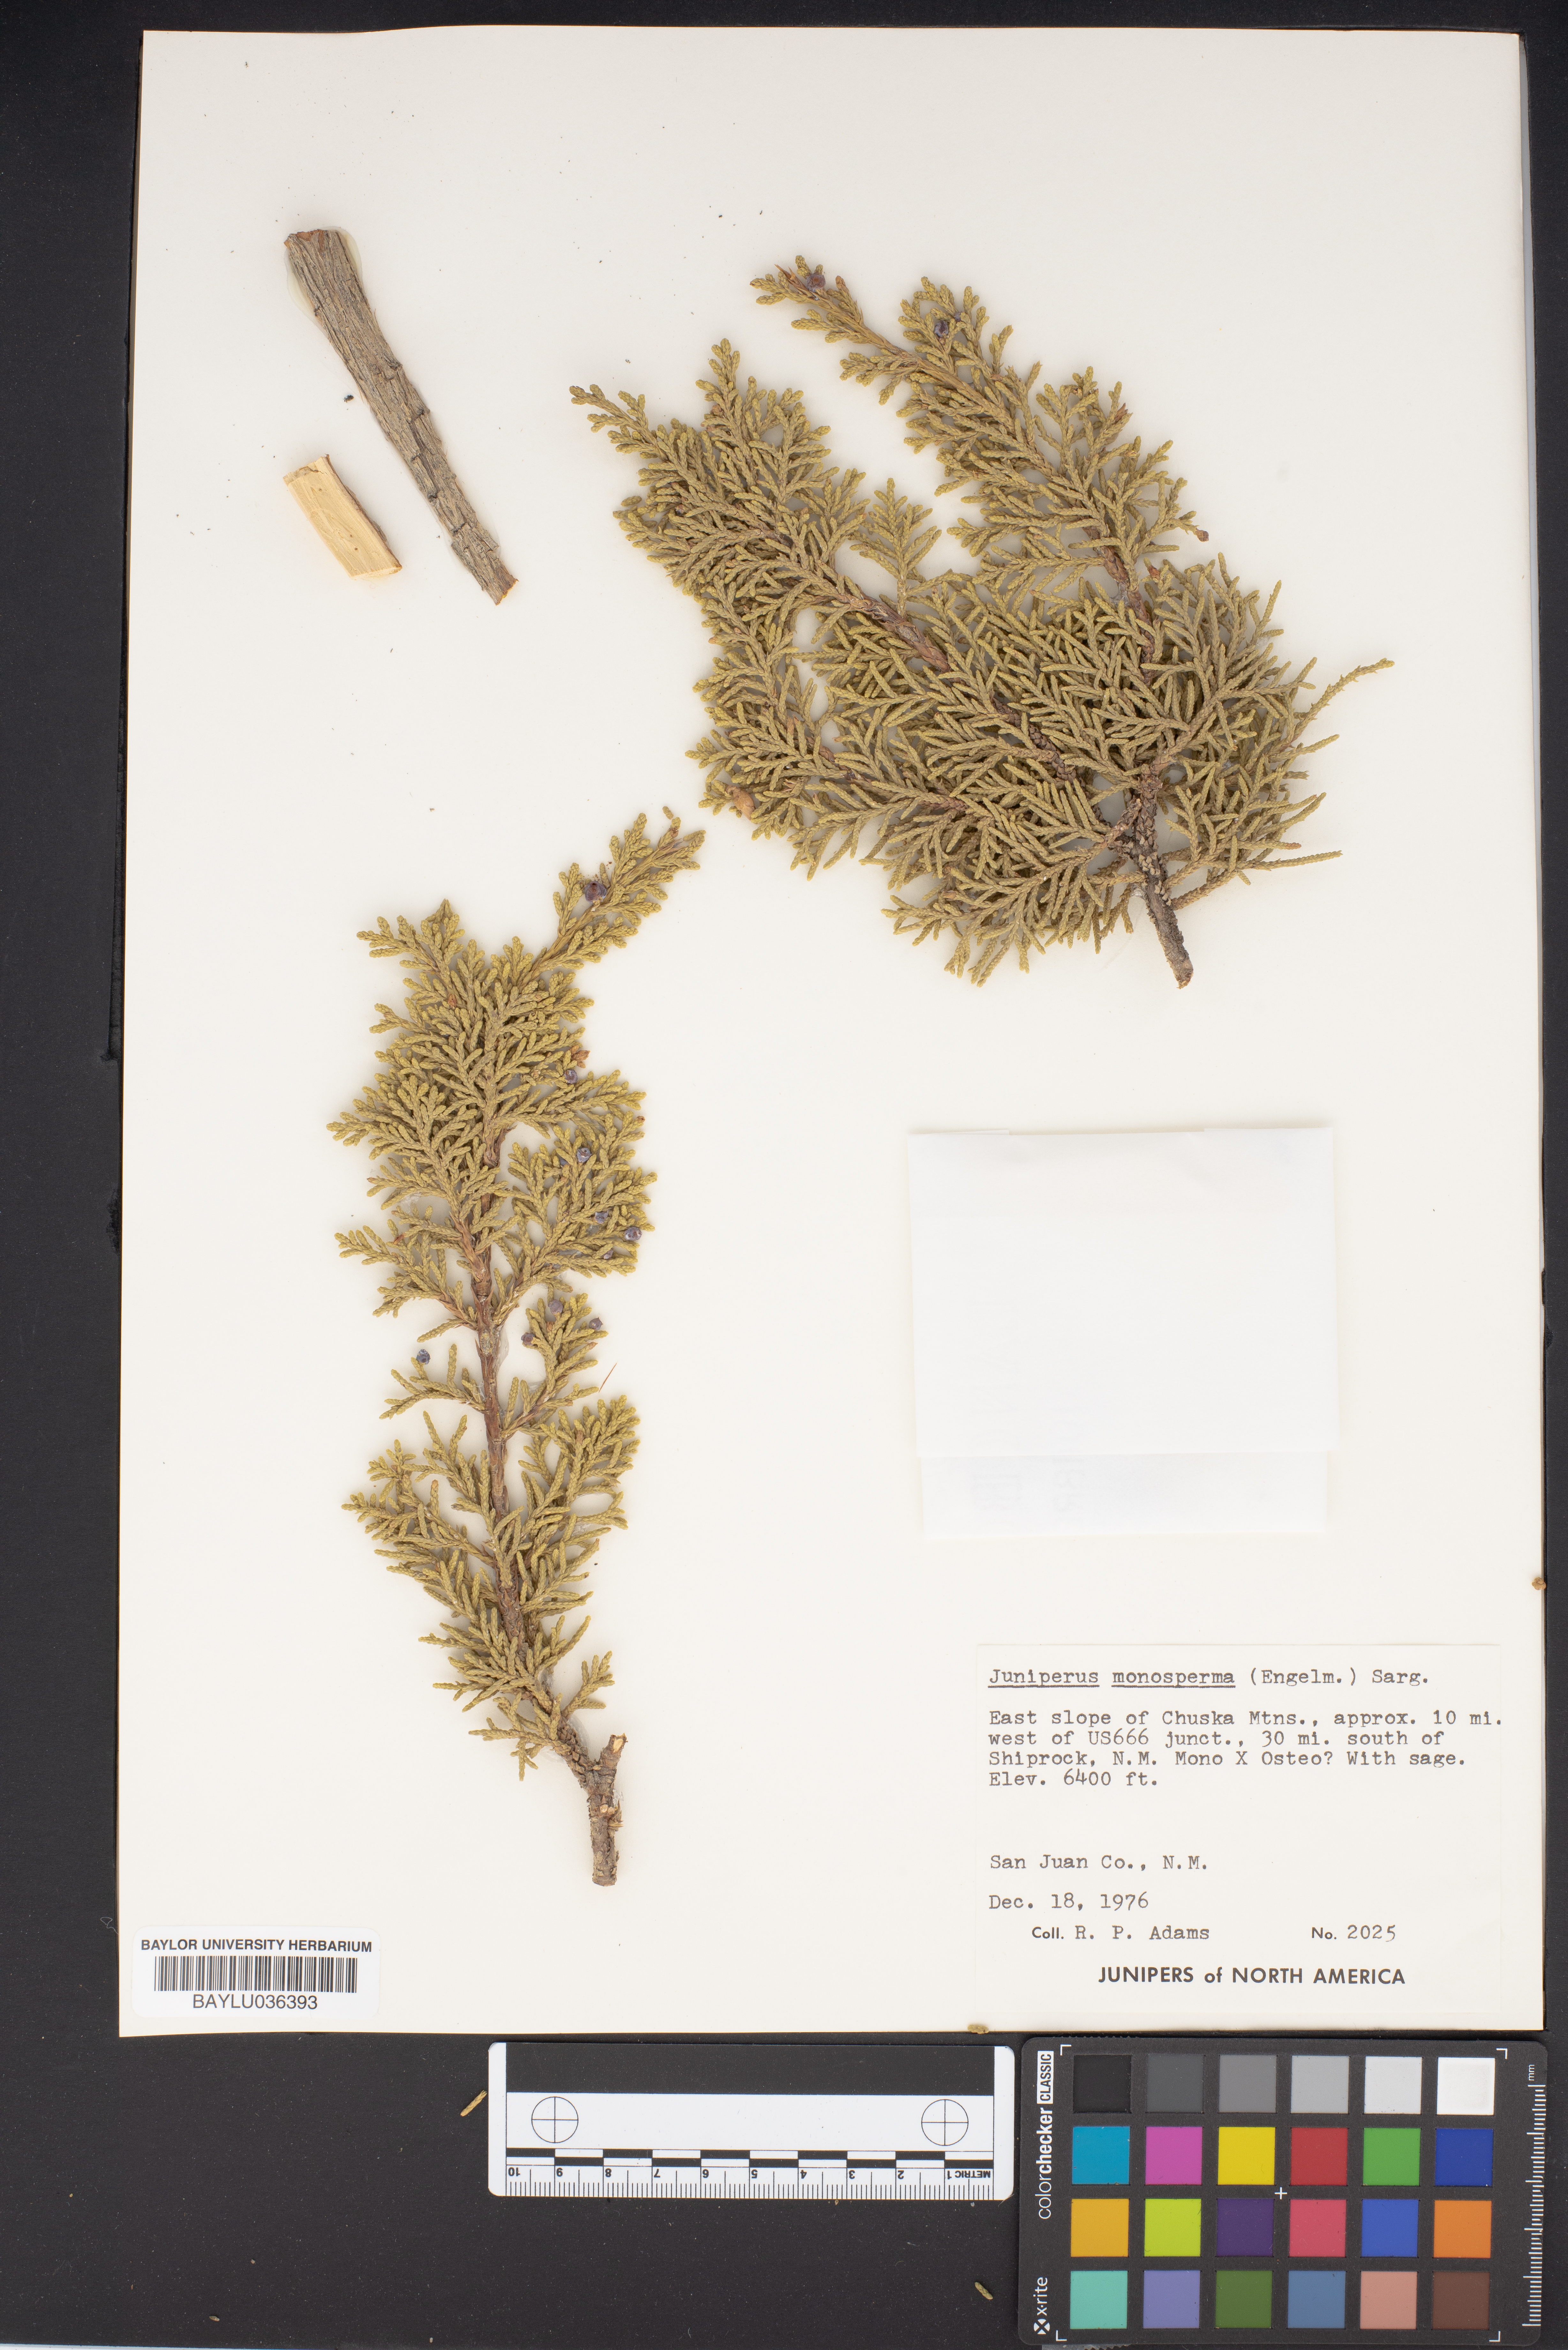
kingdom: Plantae
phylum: Tracheophyta
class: Pinopsida
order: Pinales
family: Cupressaceae
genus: Juniperus
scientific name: Juniperus monosperma
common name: One-seed juniper
